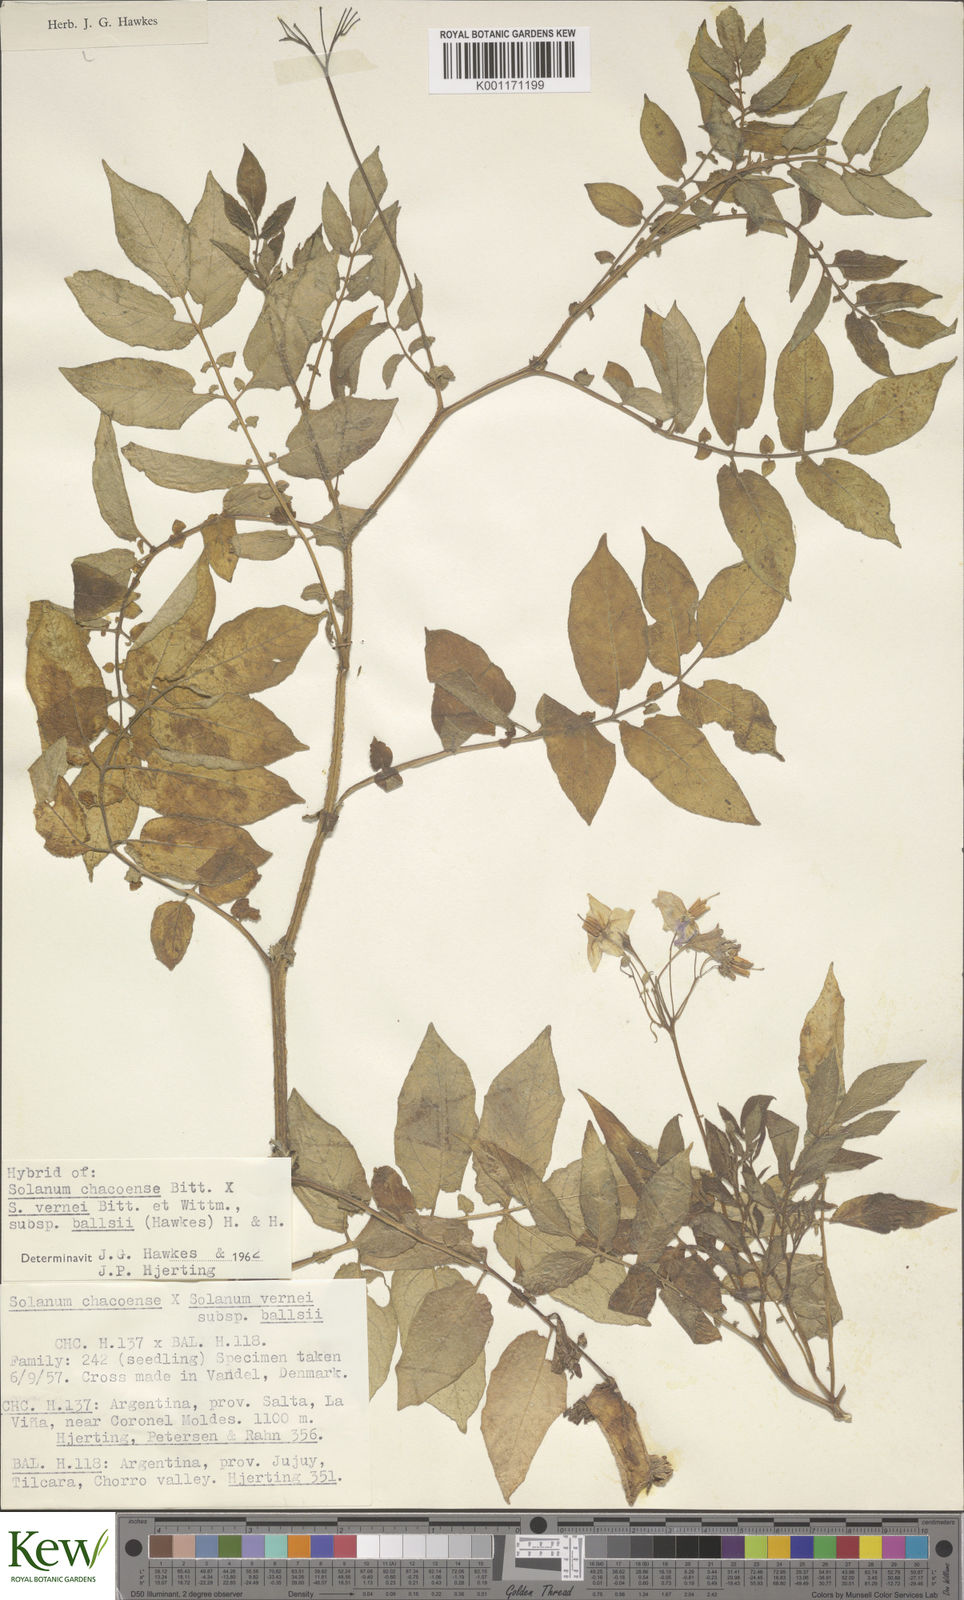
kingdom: Plantae
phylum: Tracheophyta
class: Magnoliopsida
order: Solanales
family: Solanaceae
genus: Solanum
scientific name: Solanum vernei
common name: Purple potato
